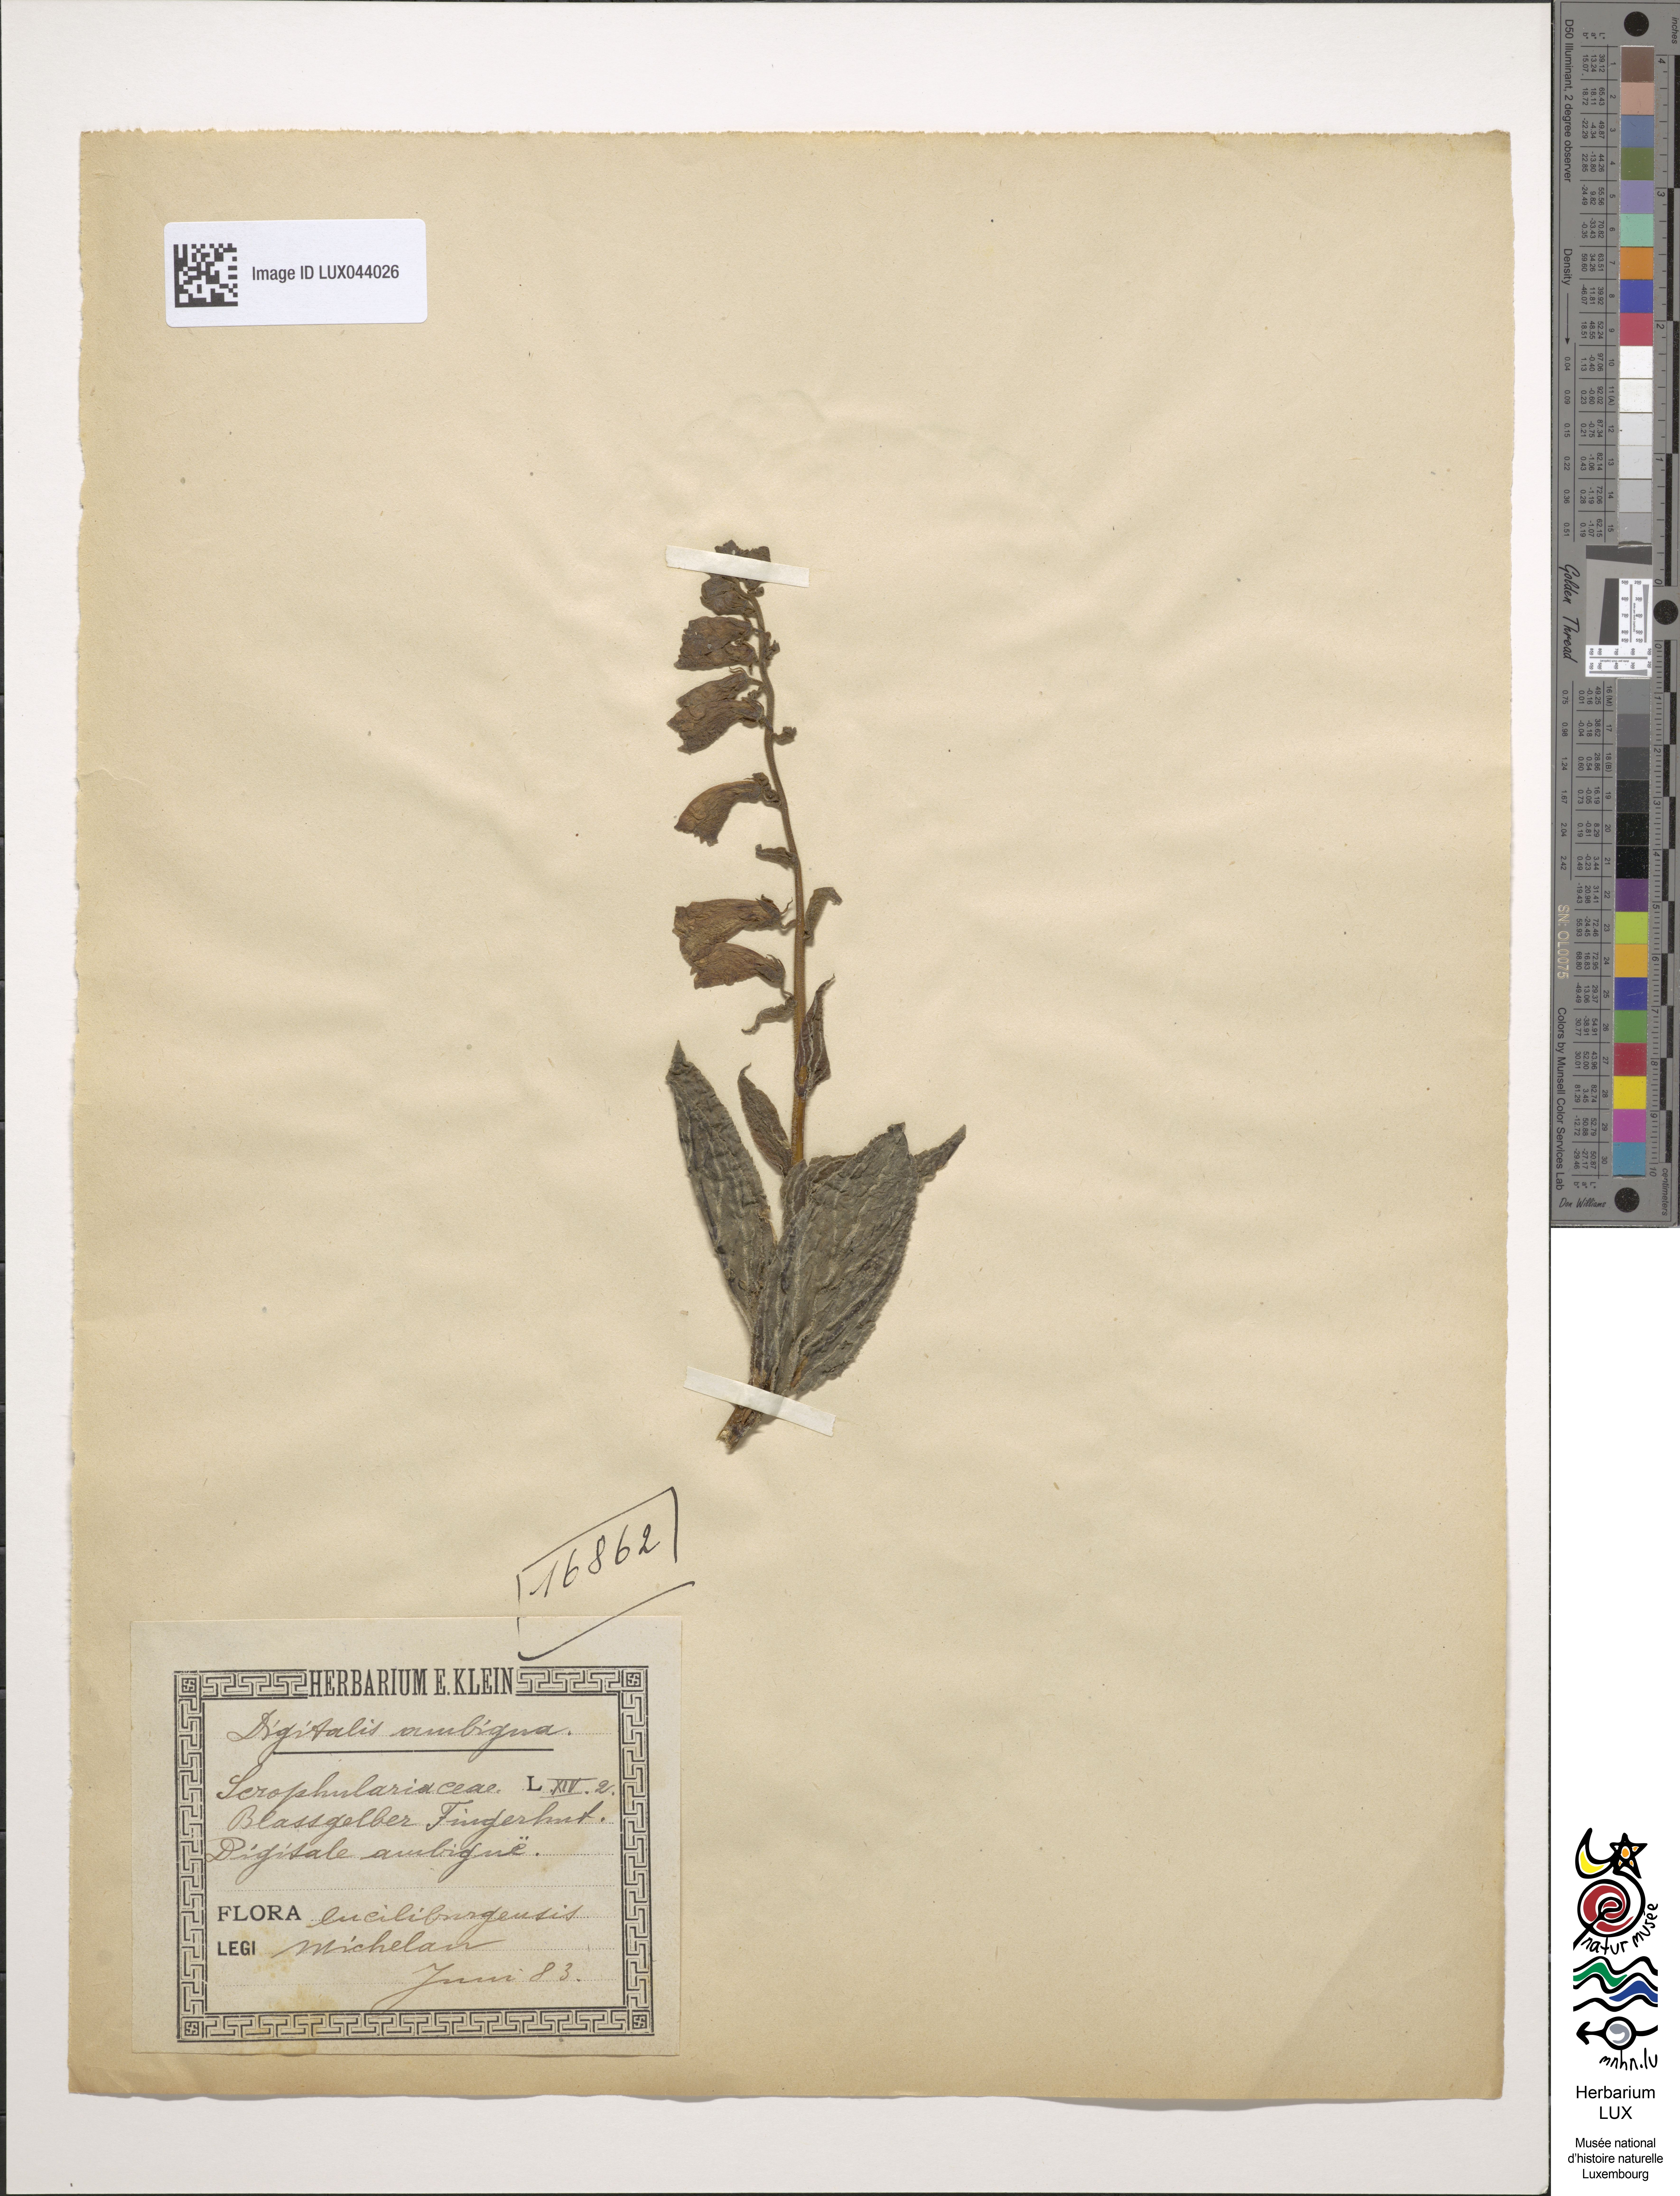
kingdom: Plantae
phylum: Tracheophyta
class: Magnoliopsida
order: Lamiales
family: Plantaginaceae
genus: Digitalis
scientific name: Digitalis grandiflora
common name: Yellow foxglove
